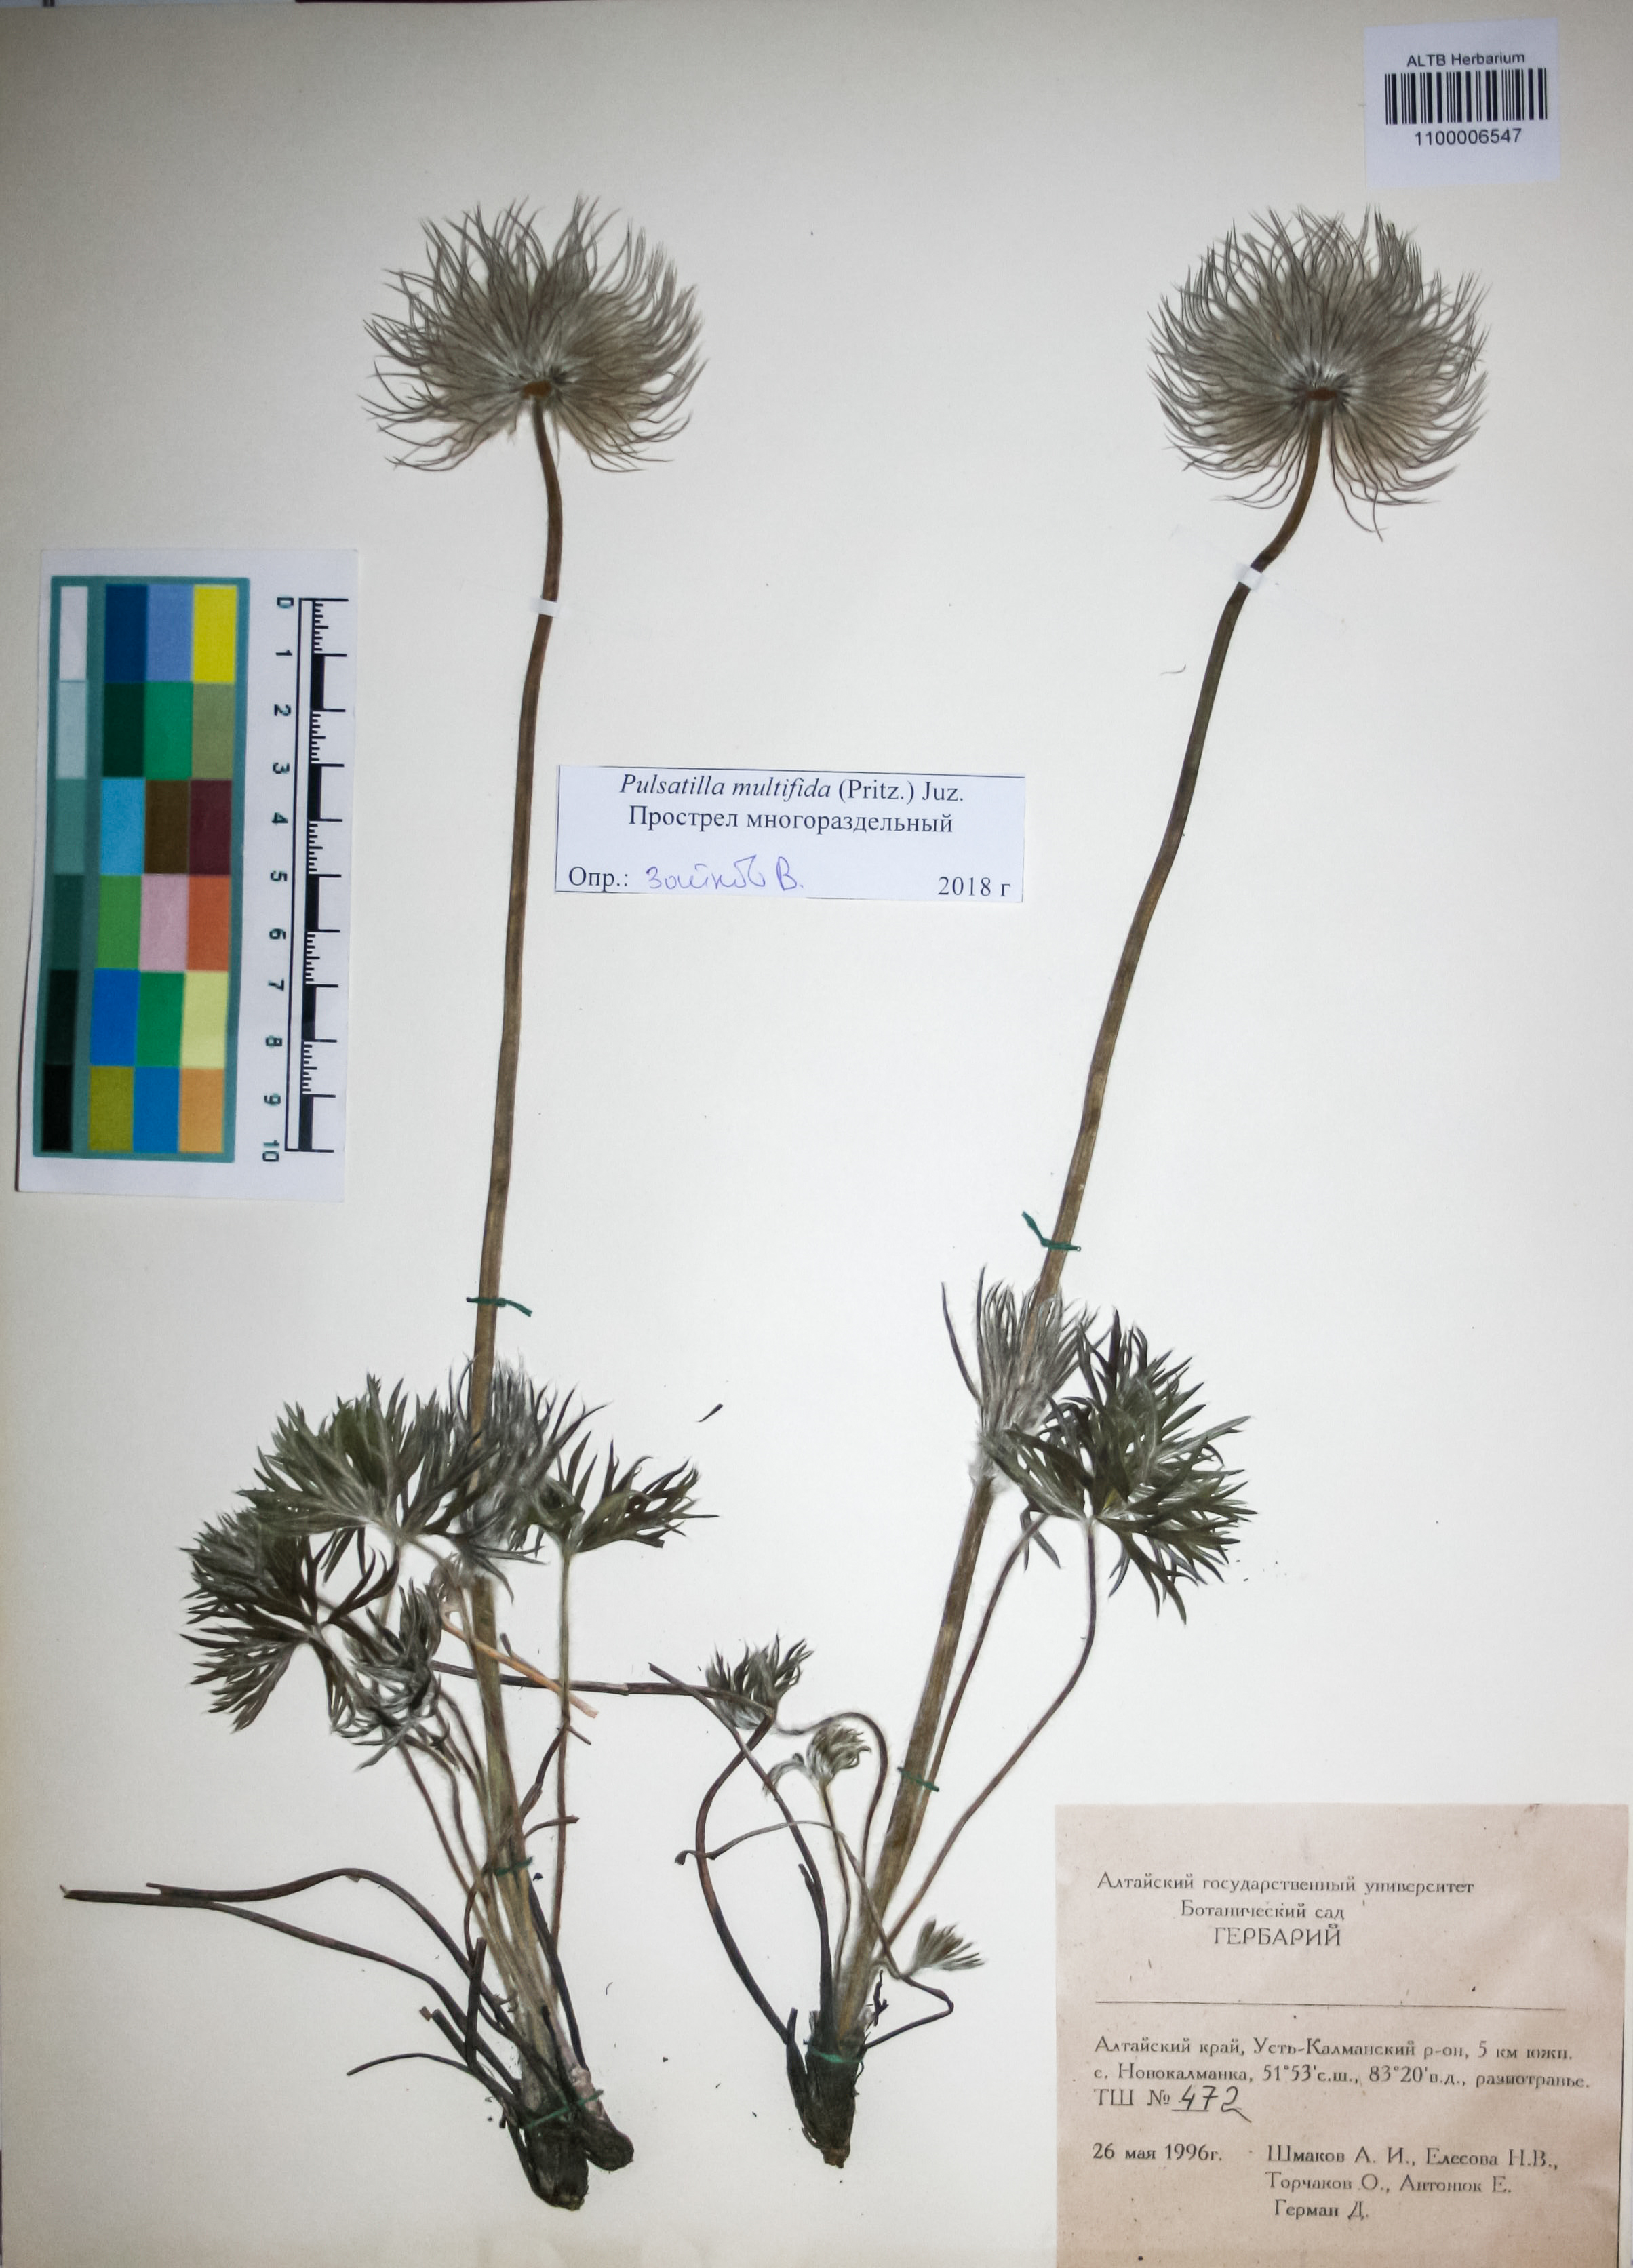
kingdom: Plantae
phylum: Tracheophyta
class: Magnoliopsida
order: Ranunculales
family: Ranunculaceae
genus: Pulsatilla
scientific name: Pulsatilla patens
